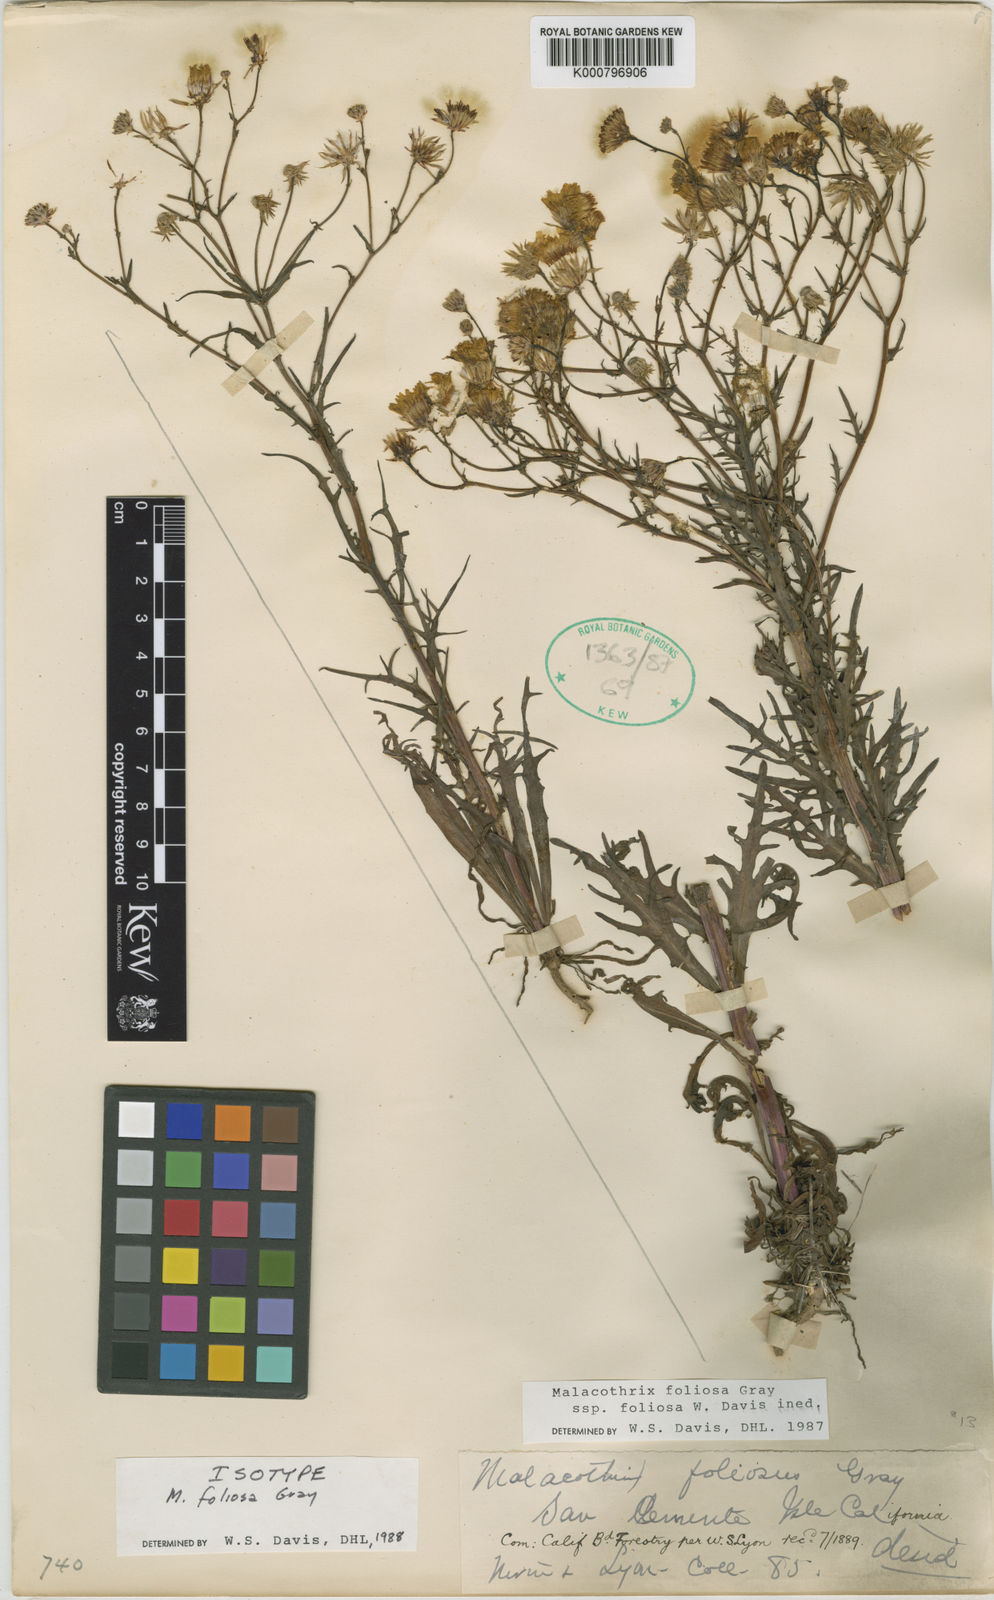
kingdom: Plantae
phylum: Tracheophyta
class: Magnoliopsida
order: Asterales
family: Asteraceae
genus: Malacothrix
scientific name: Malacothrix foliosa
